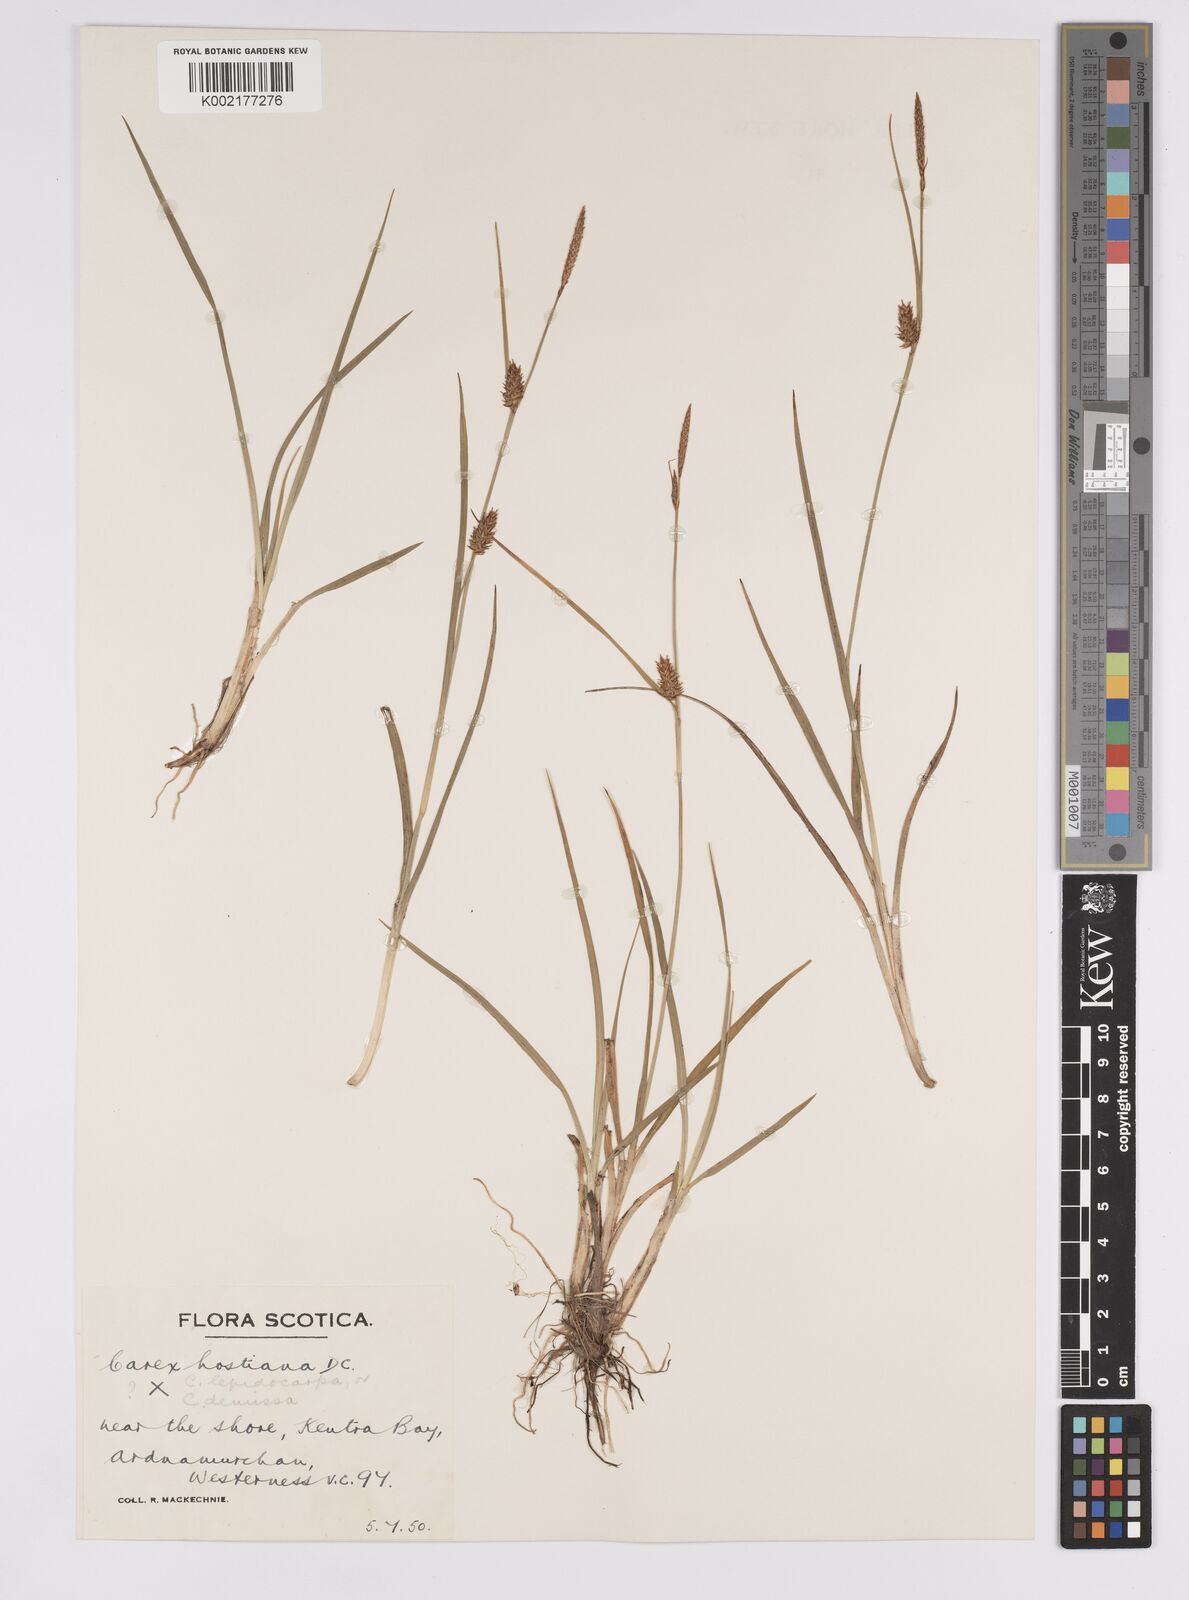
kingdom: Plantae
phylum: Tracheophyta
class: Liliopsida
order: Poales
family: Cyperaceae
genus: Carex
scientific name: Carex hostiana
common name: Tawny sedge
